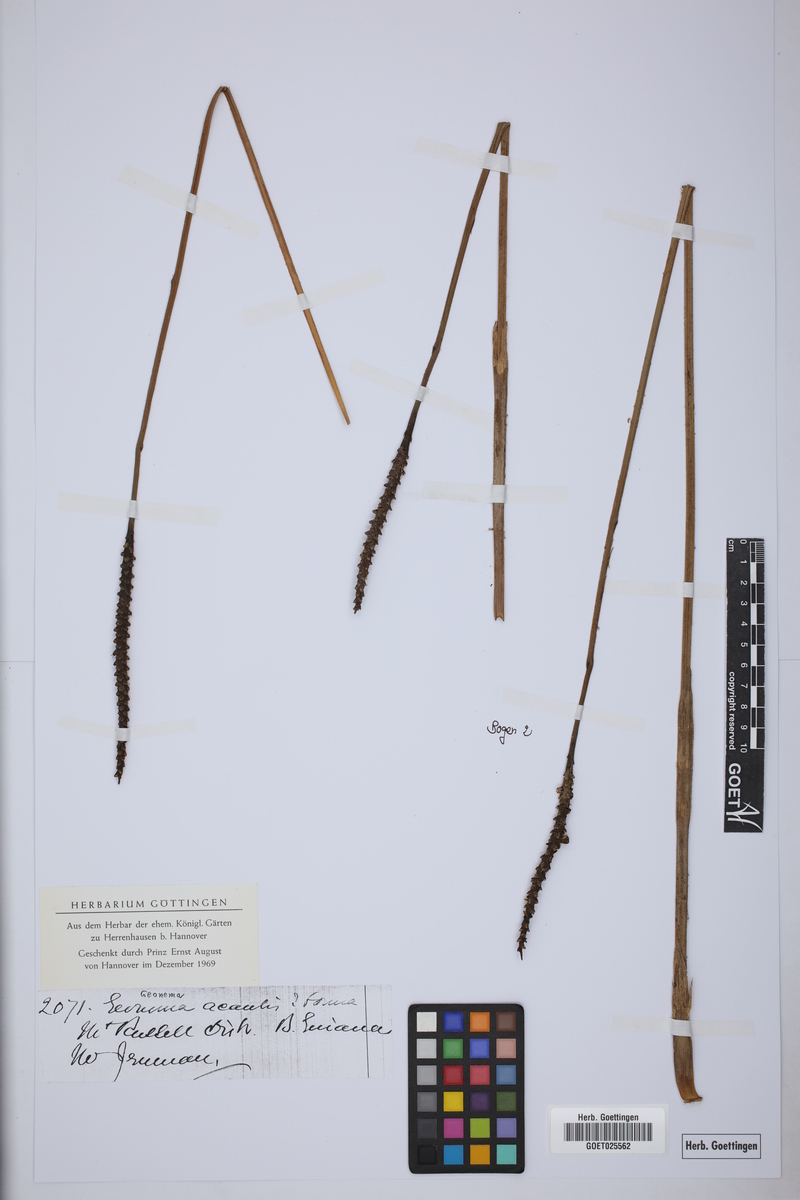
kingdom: Plantae
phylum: Tracheophyta
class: Liliopsida
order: Arecales
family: Arecaceae
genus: Geonoma
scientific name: Geonoma macrostachys
